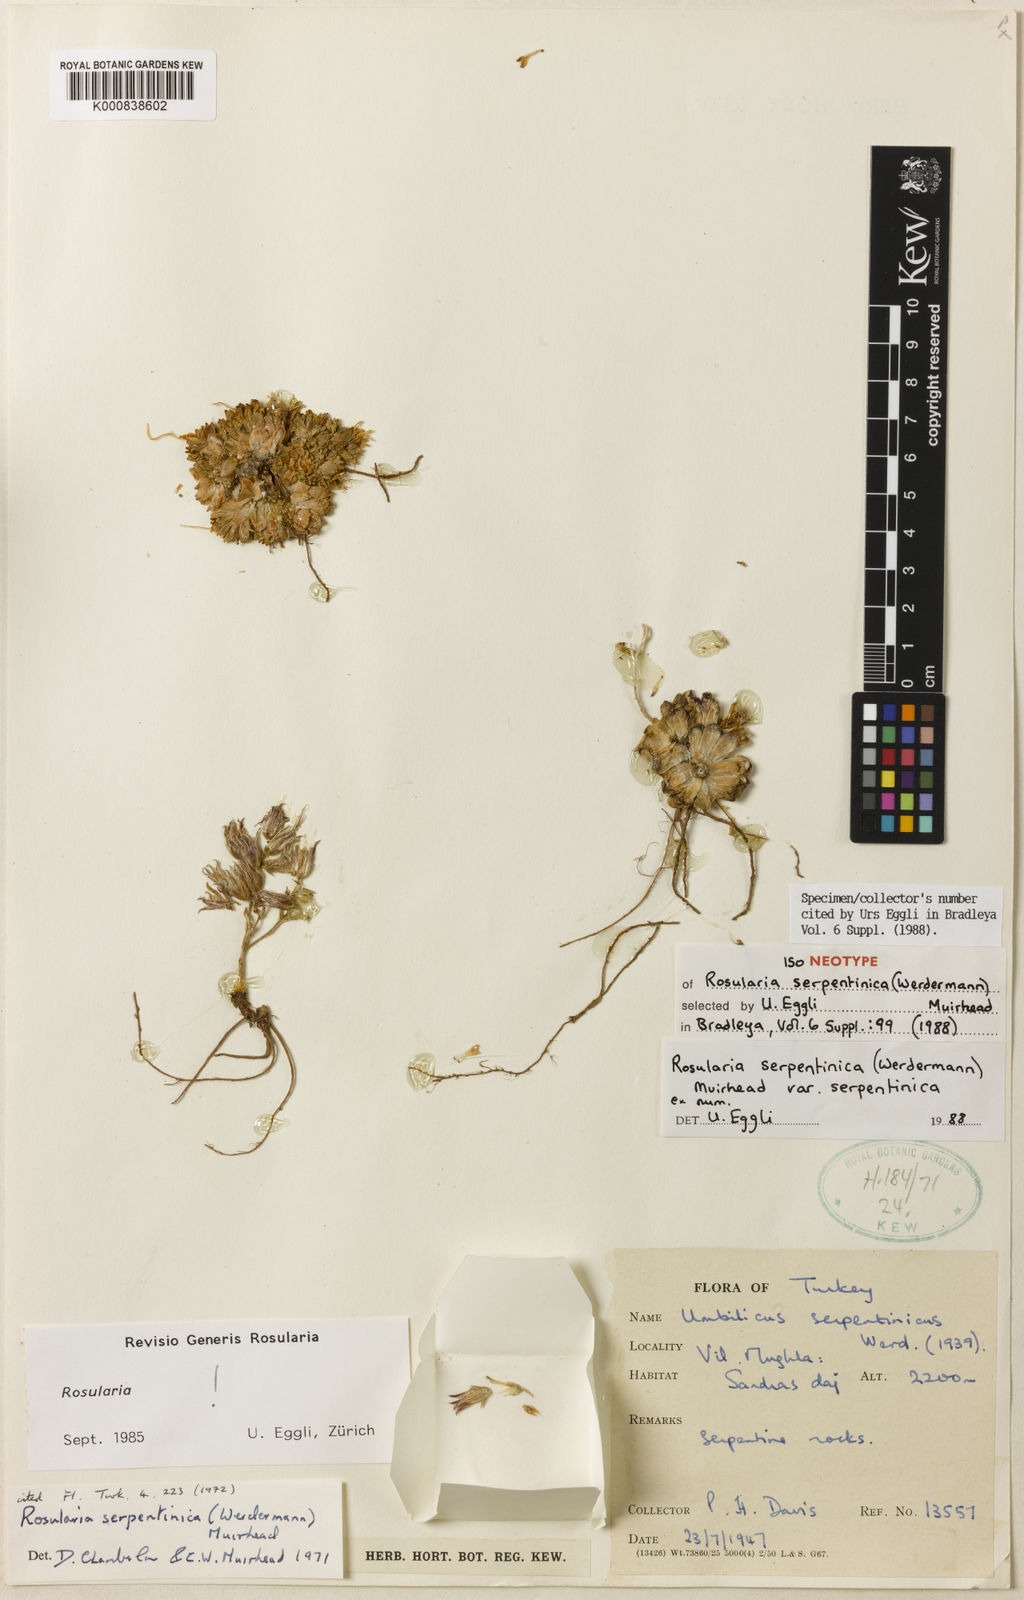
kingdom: Plantae
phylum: Tracheophyta
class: Magnoliopsida
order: Saxifragales
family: Crassulaceae
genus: Prometheum
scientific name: Prometheum serpentinicum
